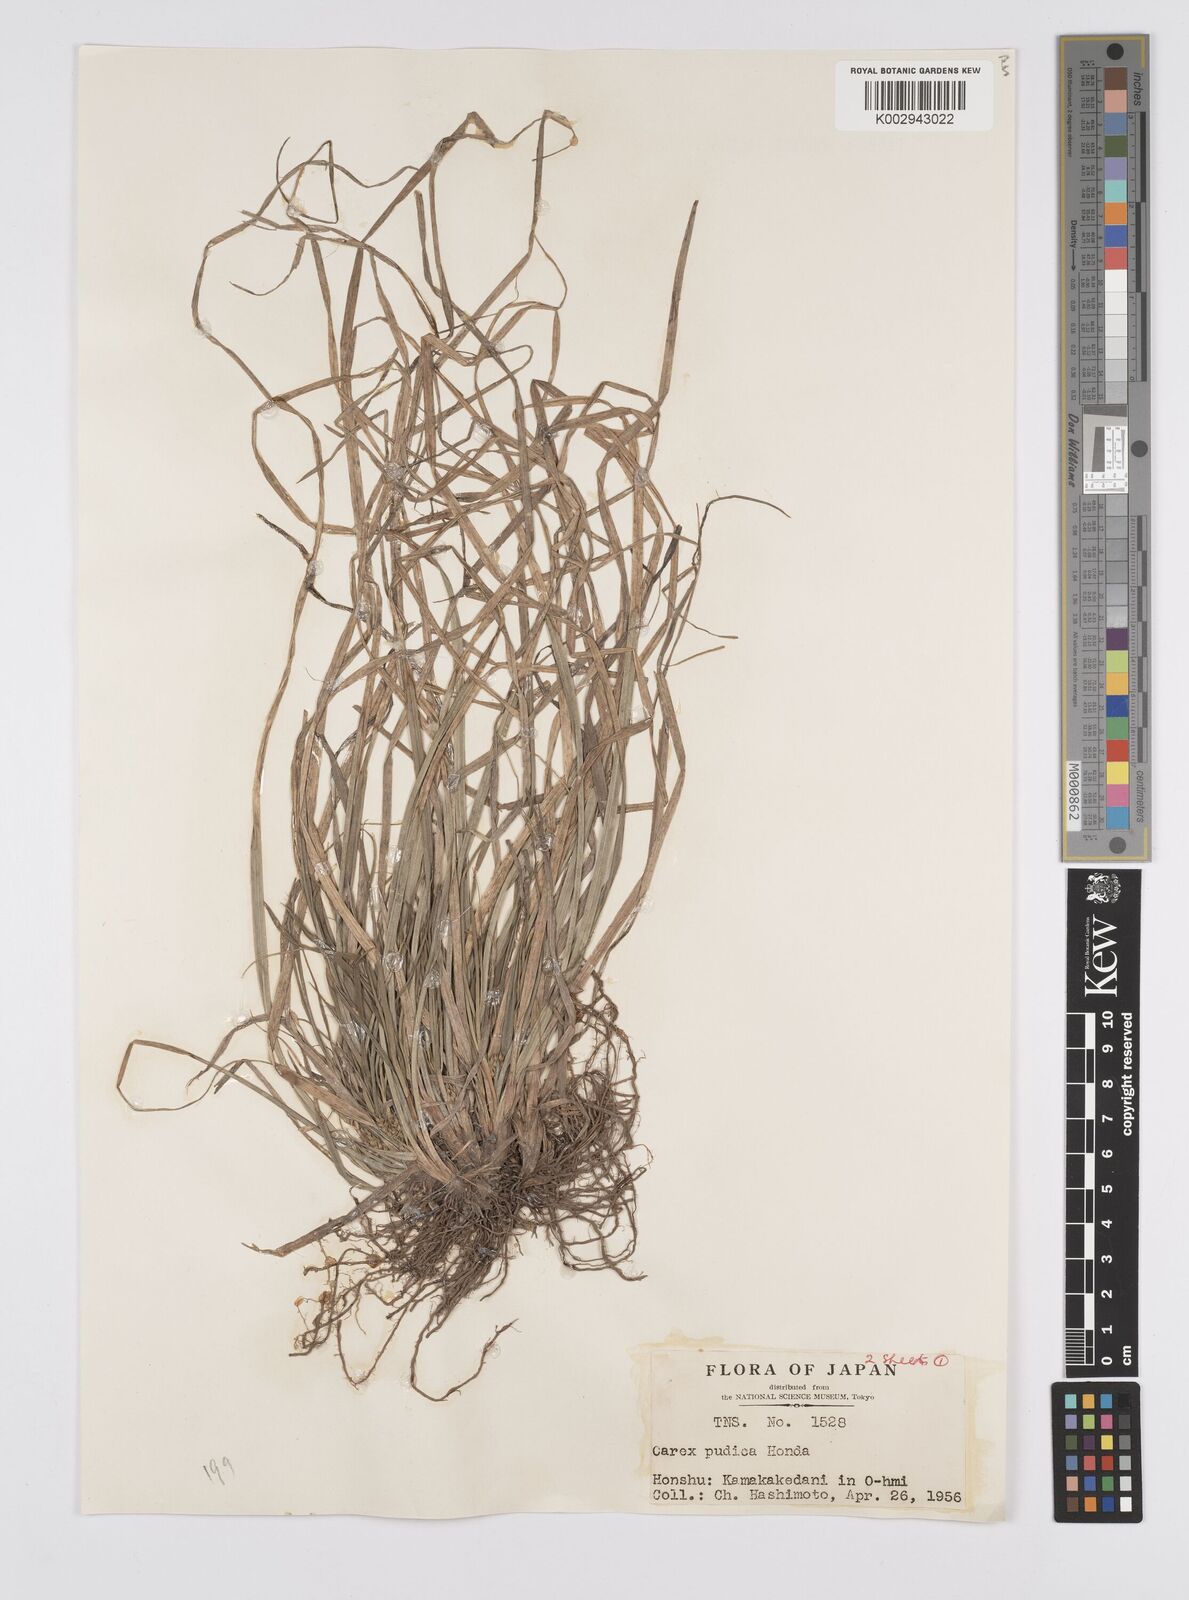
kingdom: Plantae
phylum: Tracheophyta
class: Liliopsida
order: Poales
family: Cyperaceae
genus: Carex
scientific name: Carex pudica
